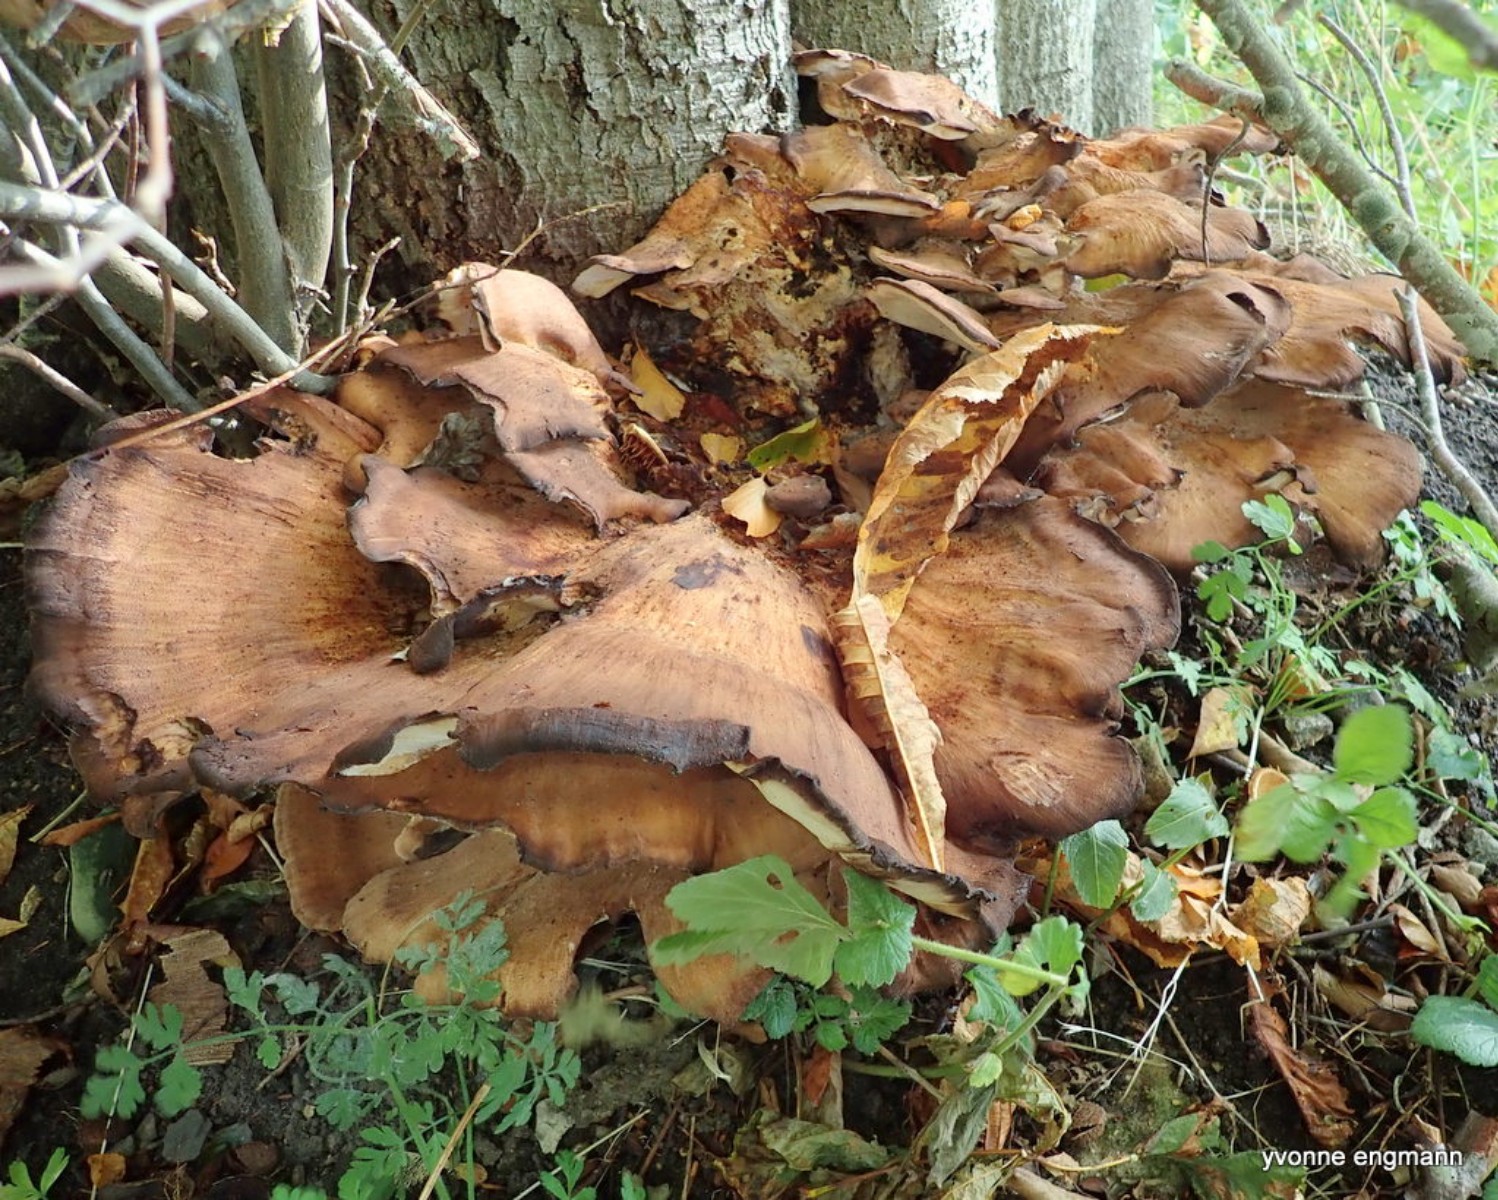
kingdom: Fungi
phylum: Basidiomycota
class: Agaricomycetes
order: Polyporales
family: Meripilaceae
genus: Meripilus
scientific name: Meripilus giganteus
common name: kæmpeporesvamp
